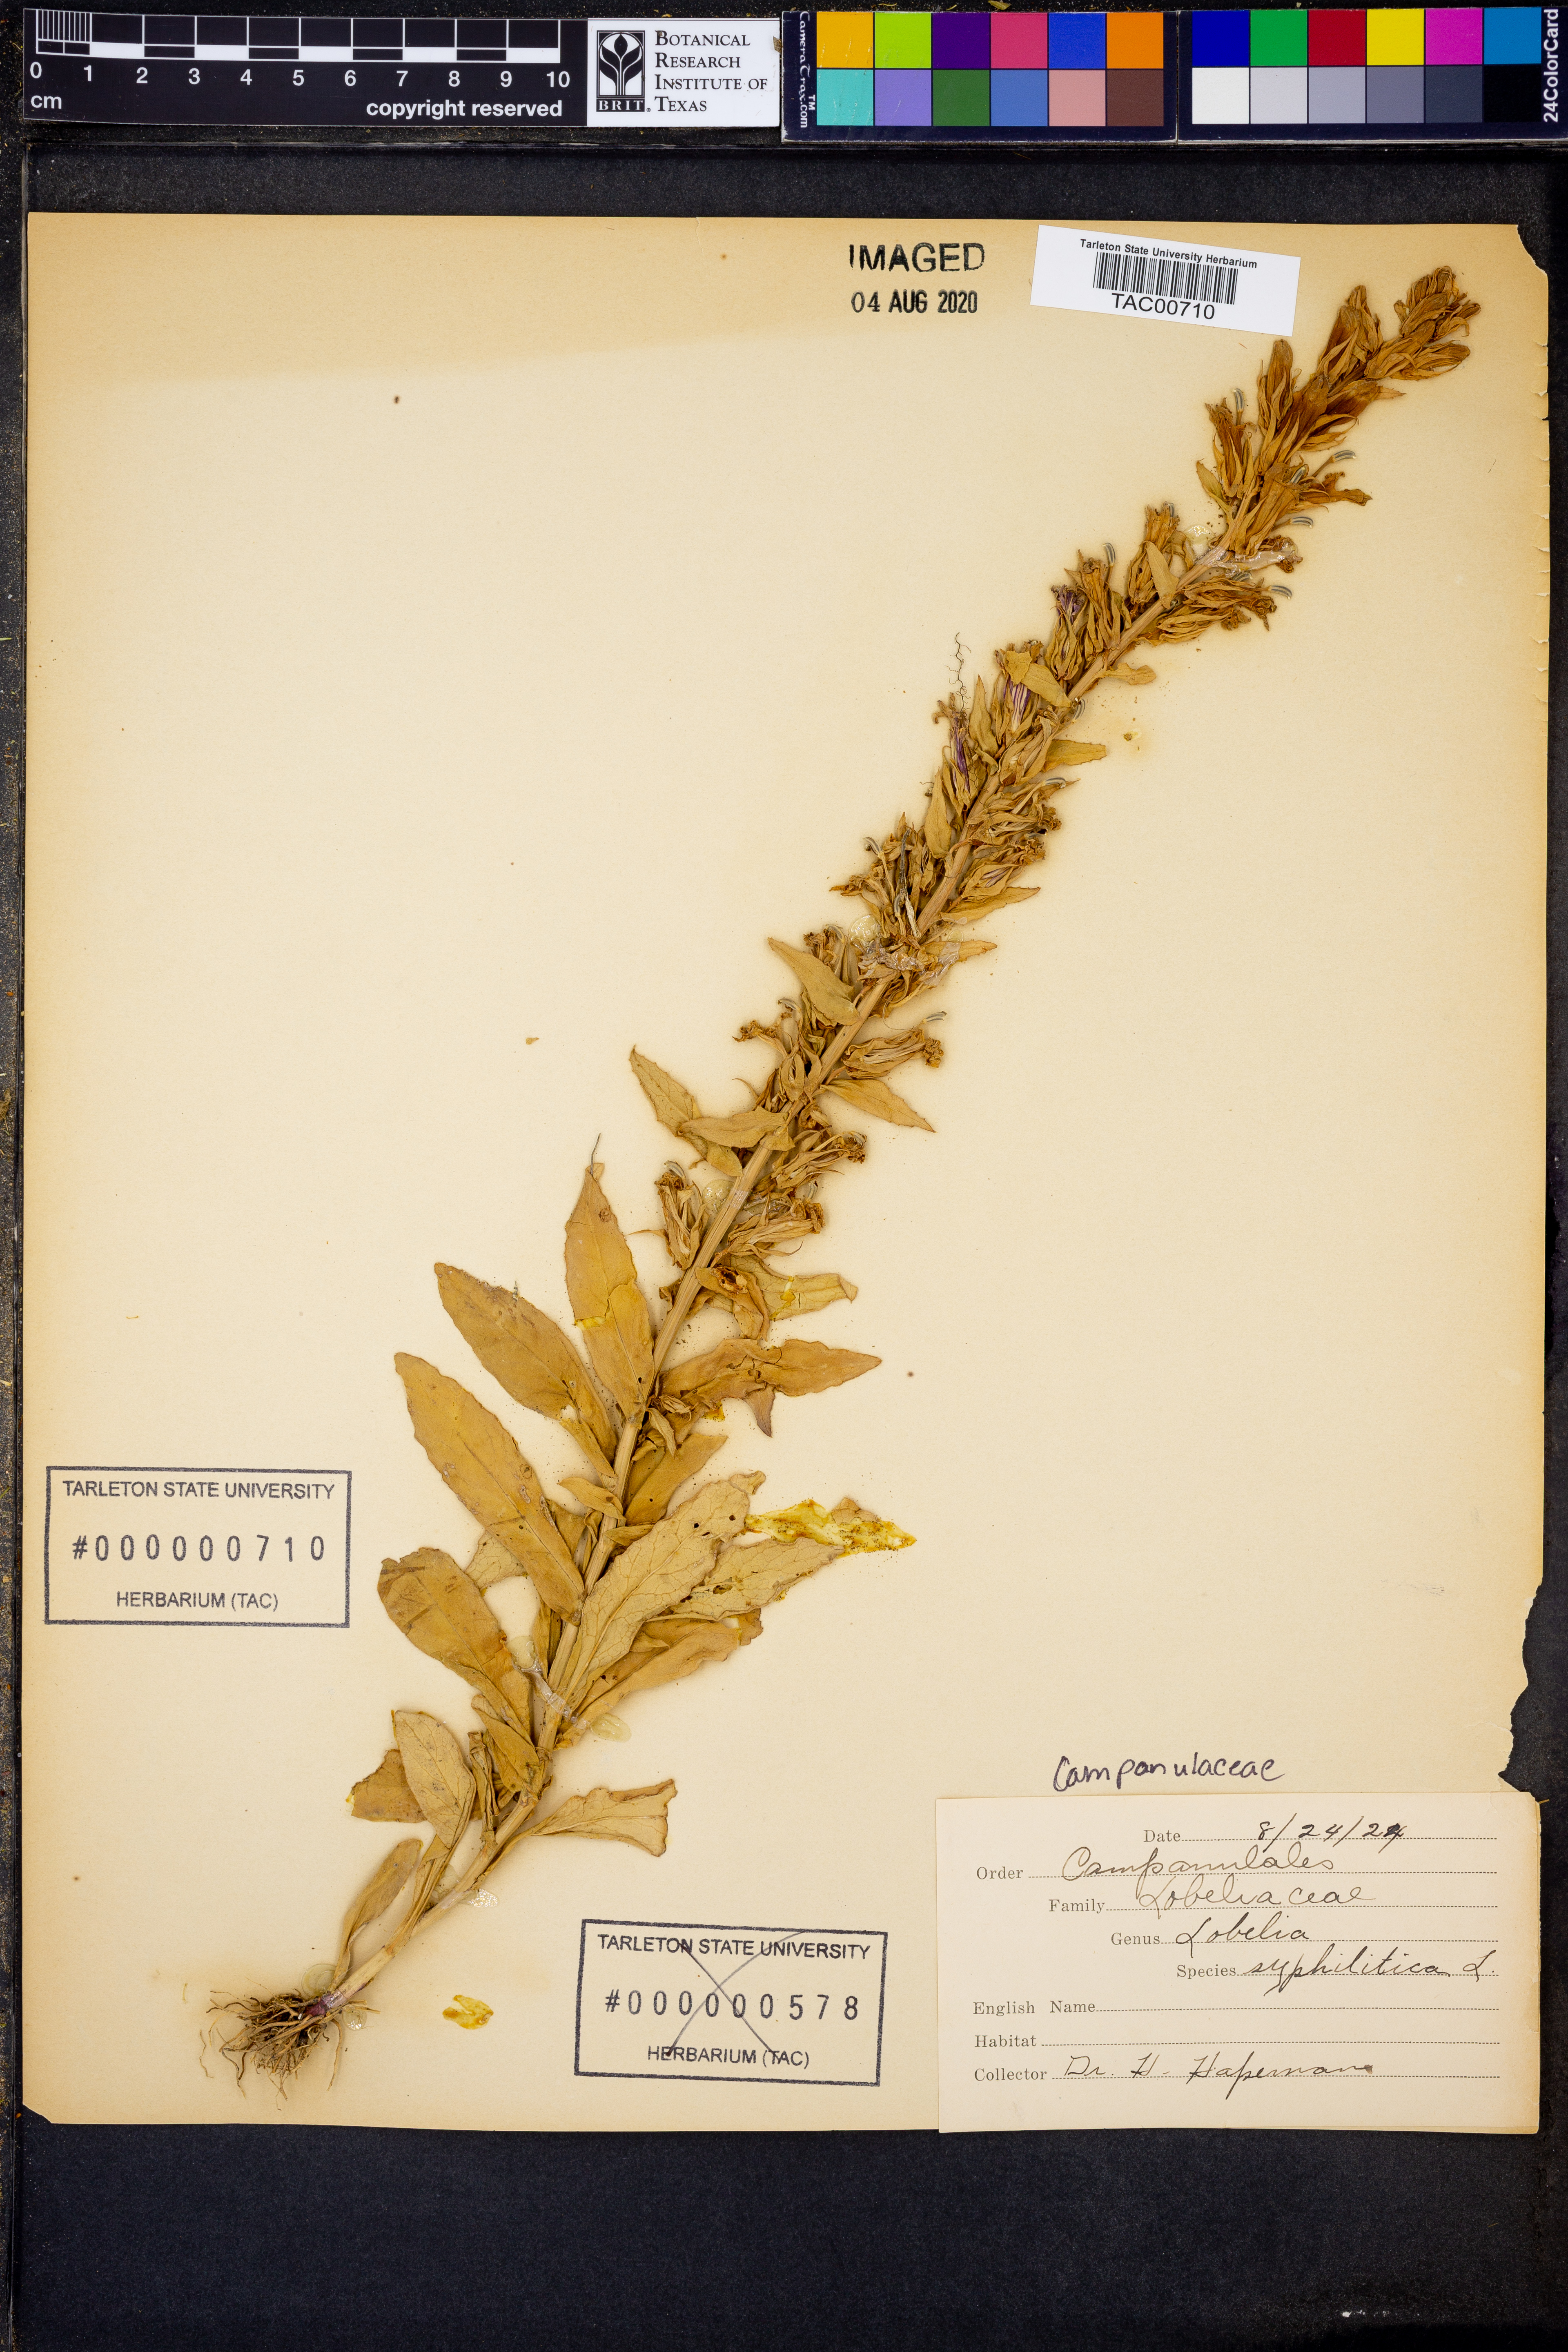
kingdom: Plantae
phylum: Tracheophyta
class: Magnoliopsida
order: Asterales
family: Campanulaceae
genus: Lobelia
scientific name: Lobelia siphilitica
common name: Great lobelia
